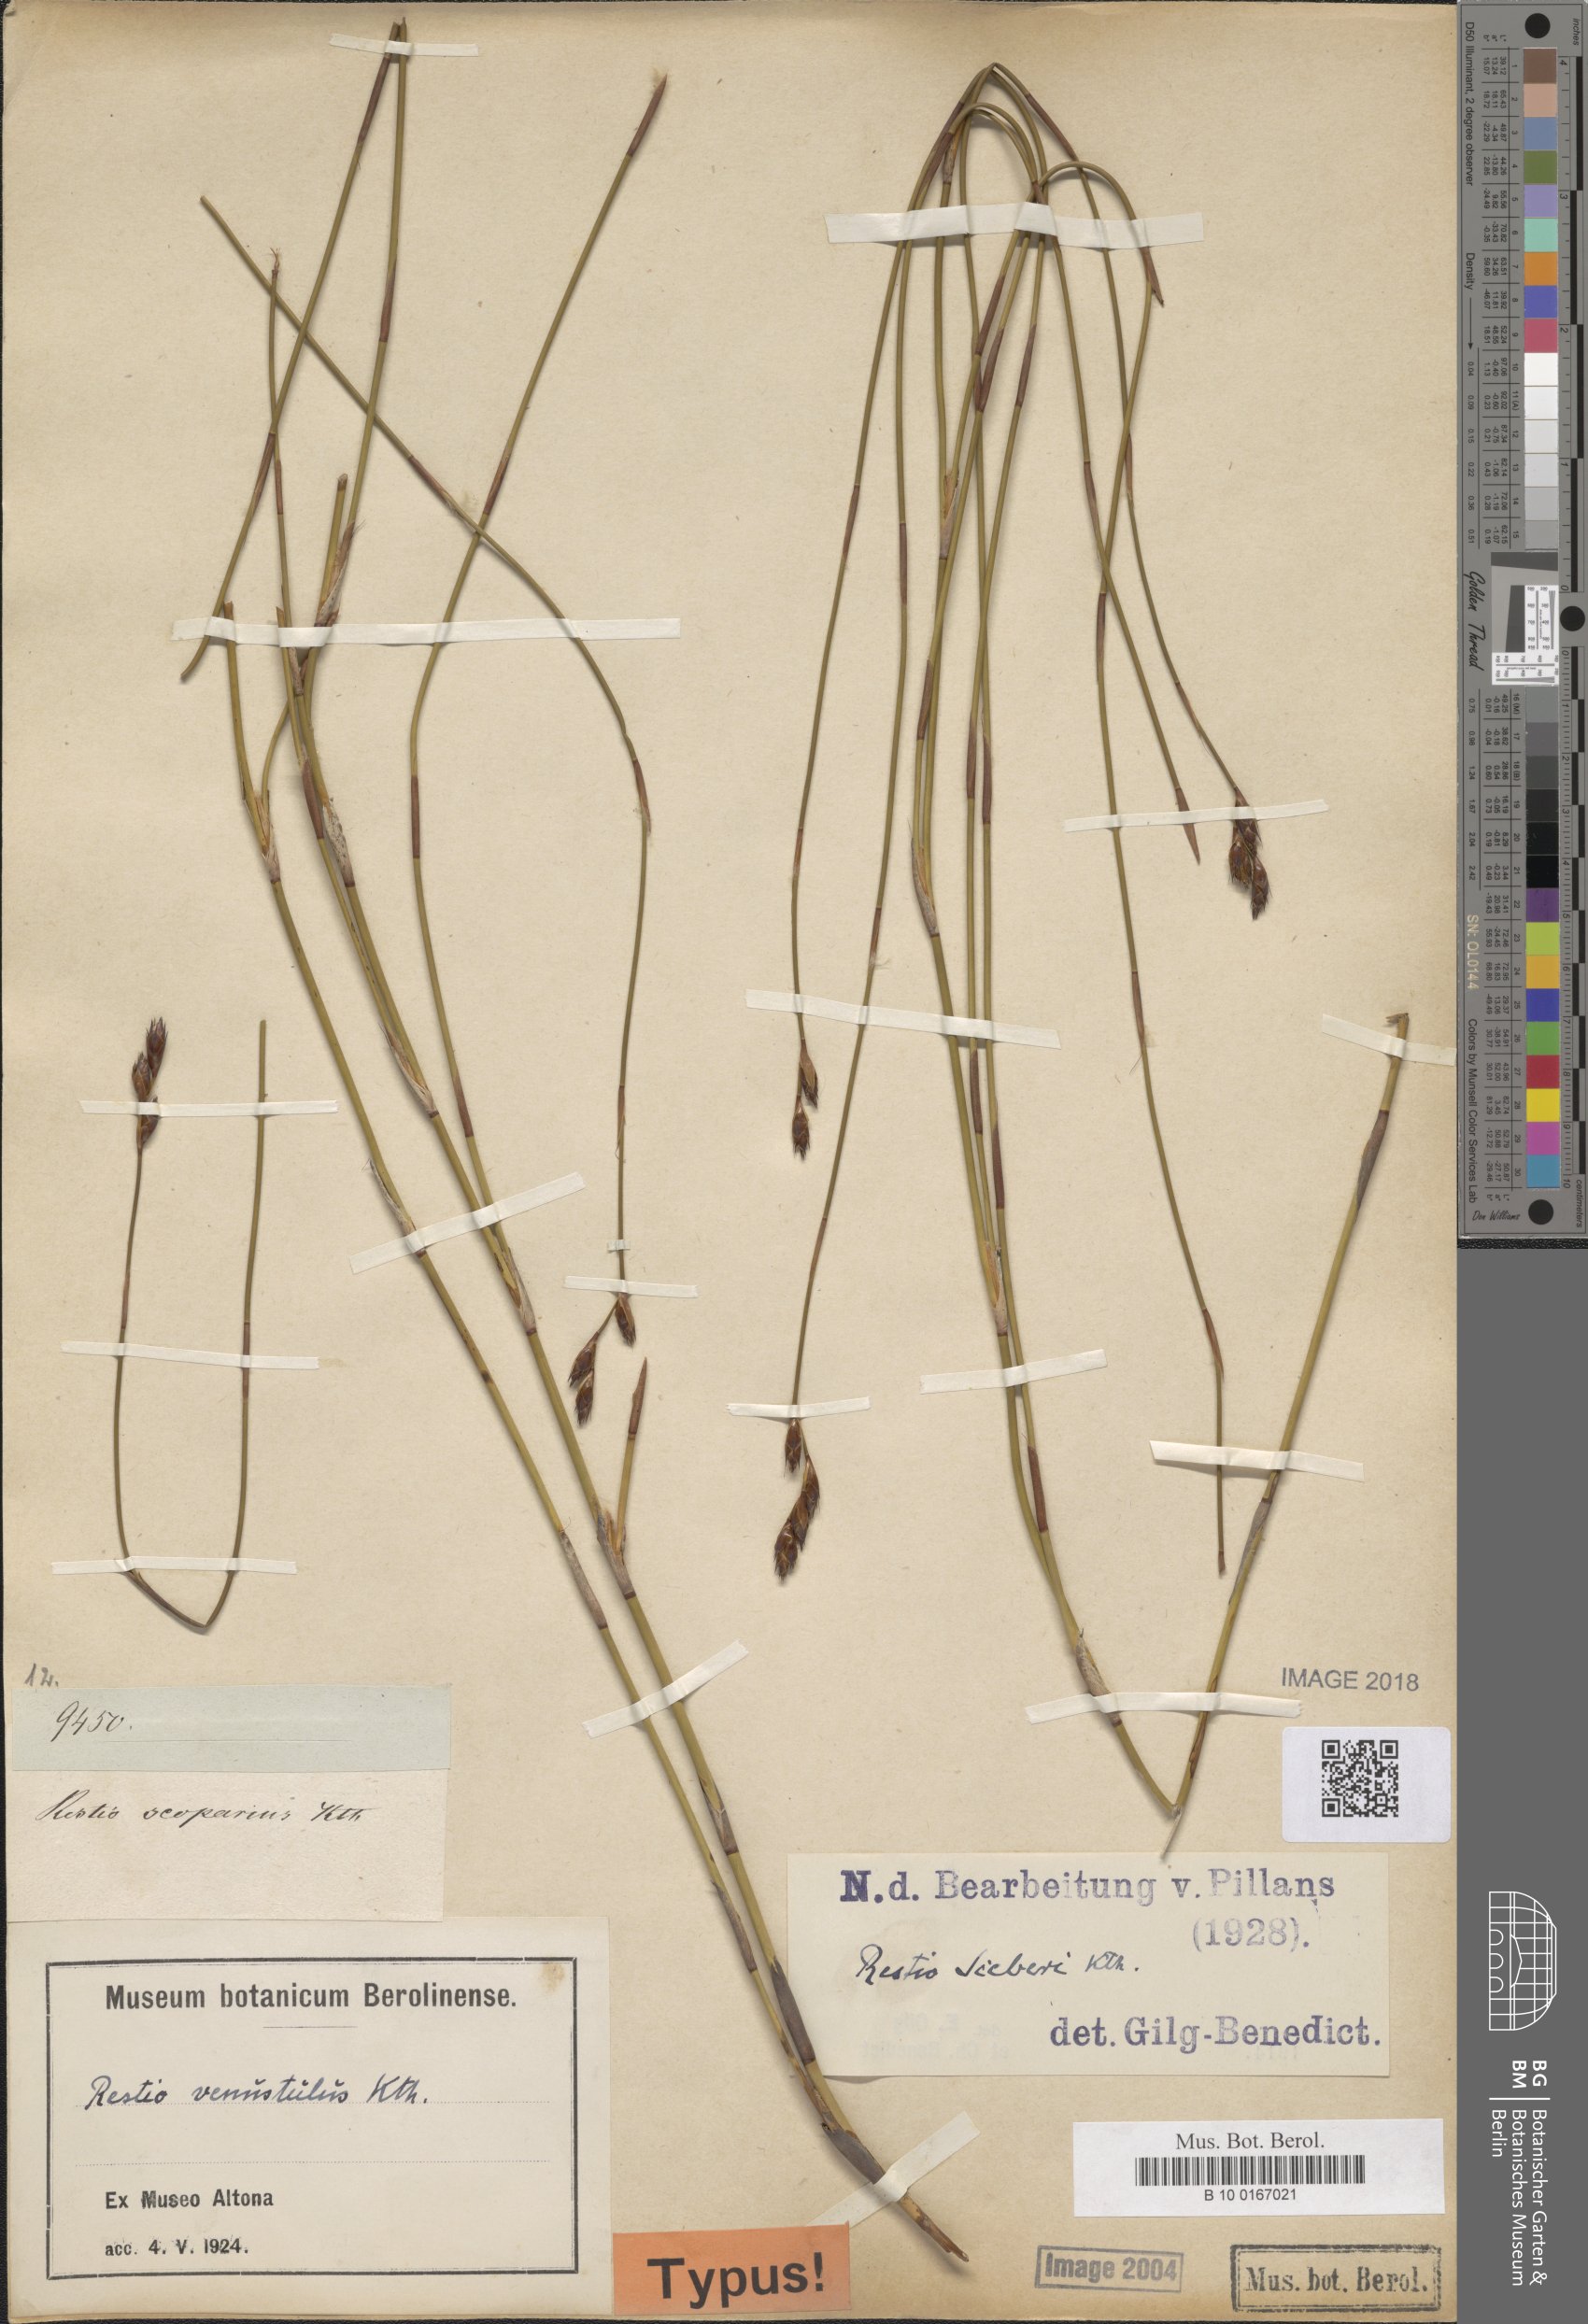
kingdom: Plantae
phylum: Tracheophyta
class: Liliopsida
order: Poales
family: Restionaceae
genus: Restio
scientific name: Restio sieberi
